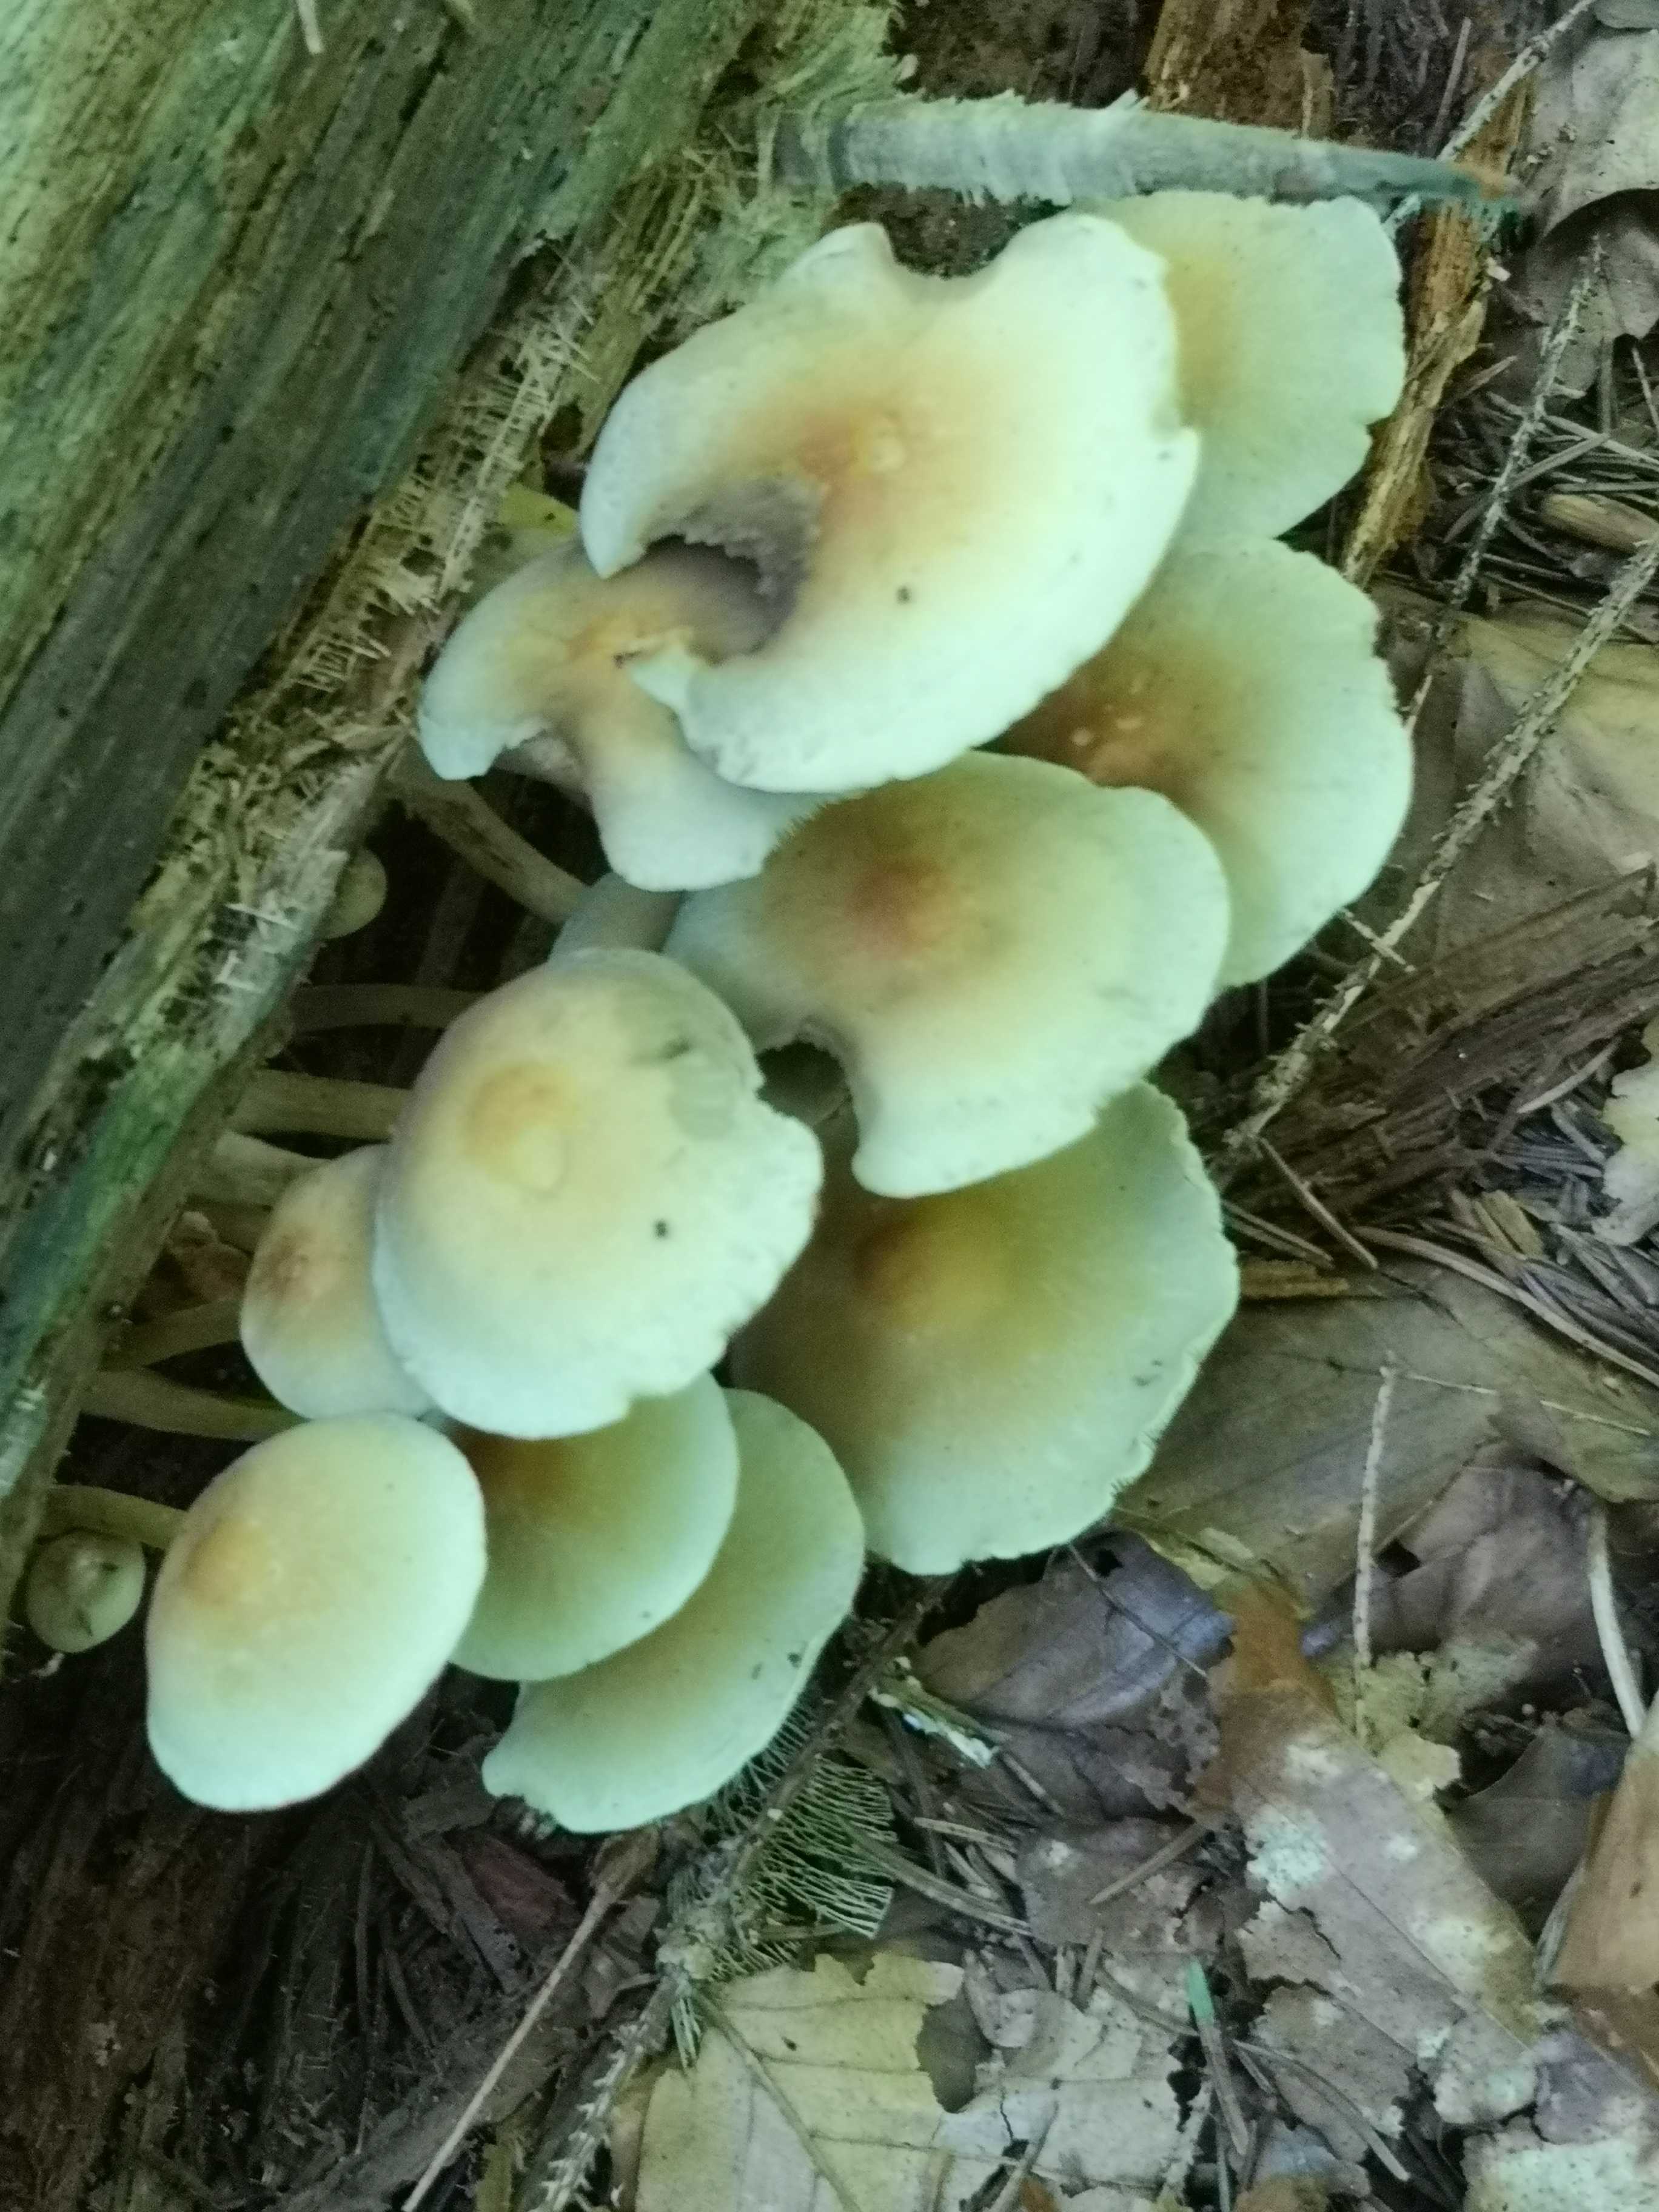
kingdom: Fungi
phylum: Basidiomycota
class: Agaricomycetes
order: Agaricales
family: Strophariaceae
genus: Hypholoma
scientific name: Hypholoma fasciculare
